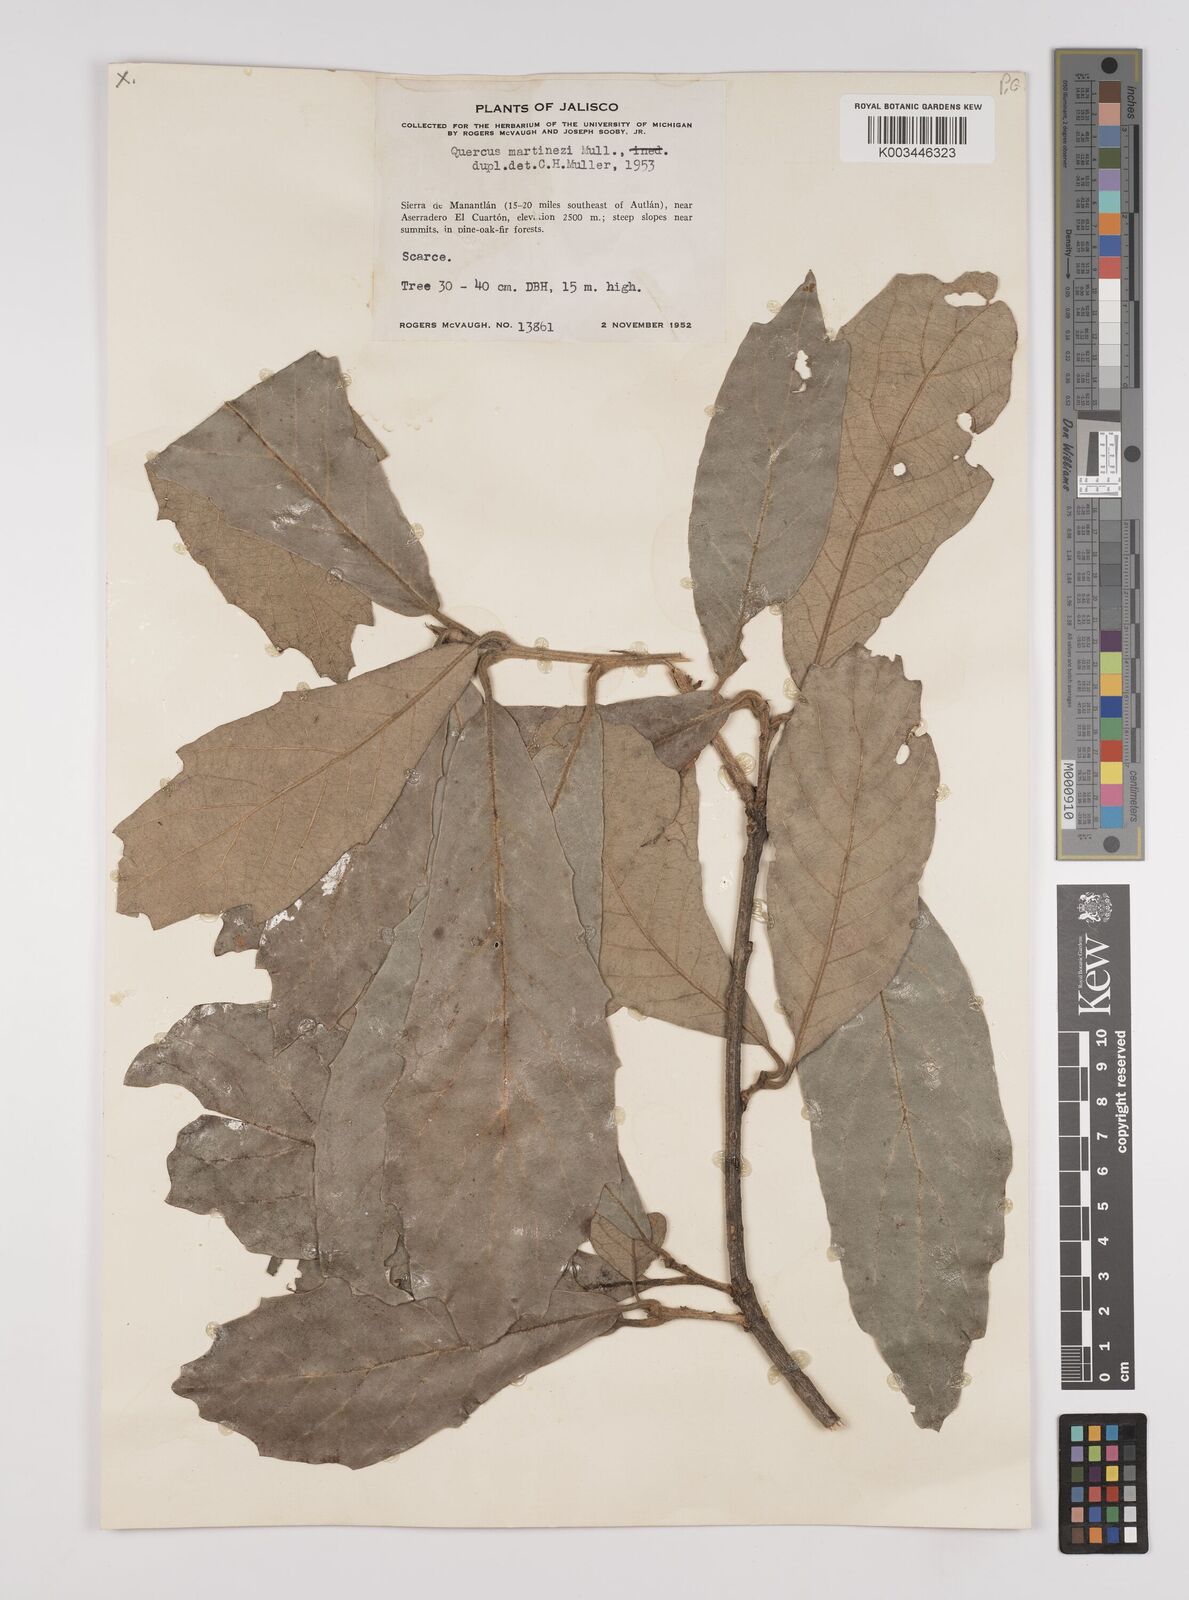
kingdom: Plantae
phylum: Tracheophyta
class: Magnoliopsida
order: Fagales
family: Fagaceae
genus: Quercus
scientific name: Quercus martinezii
